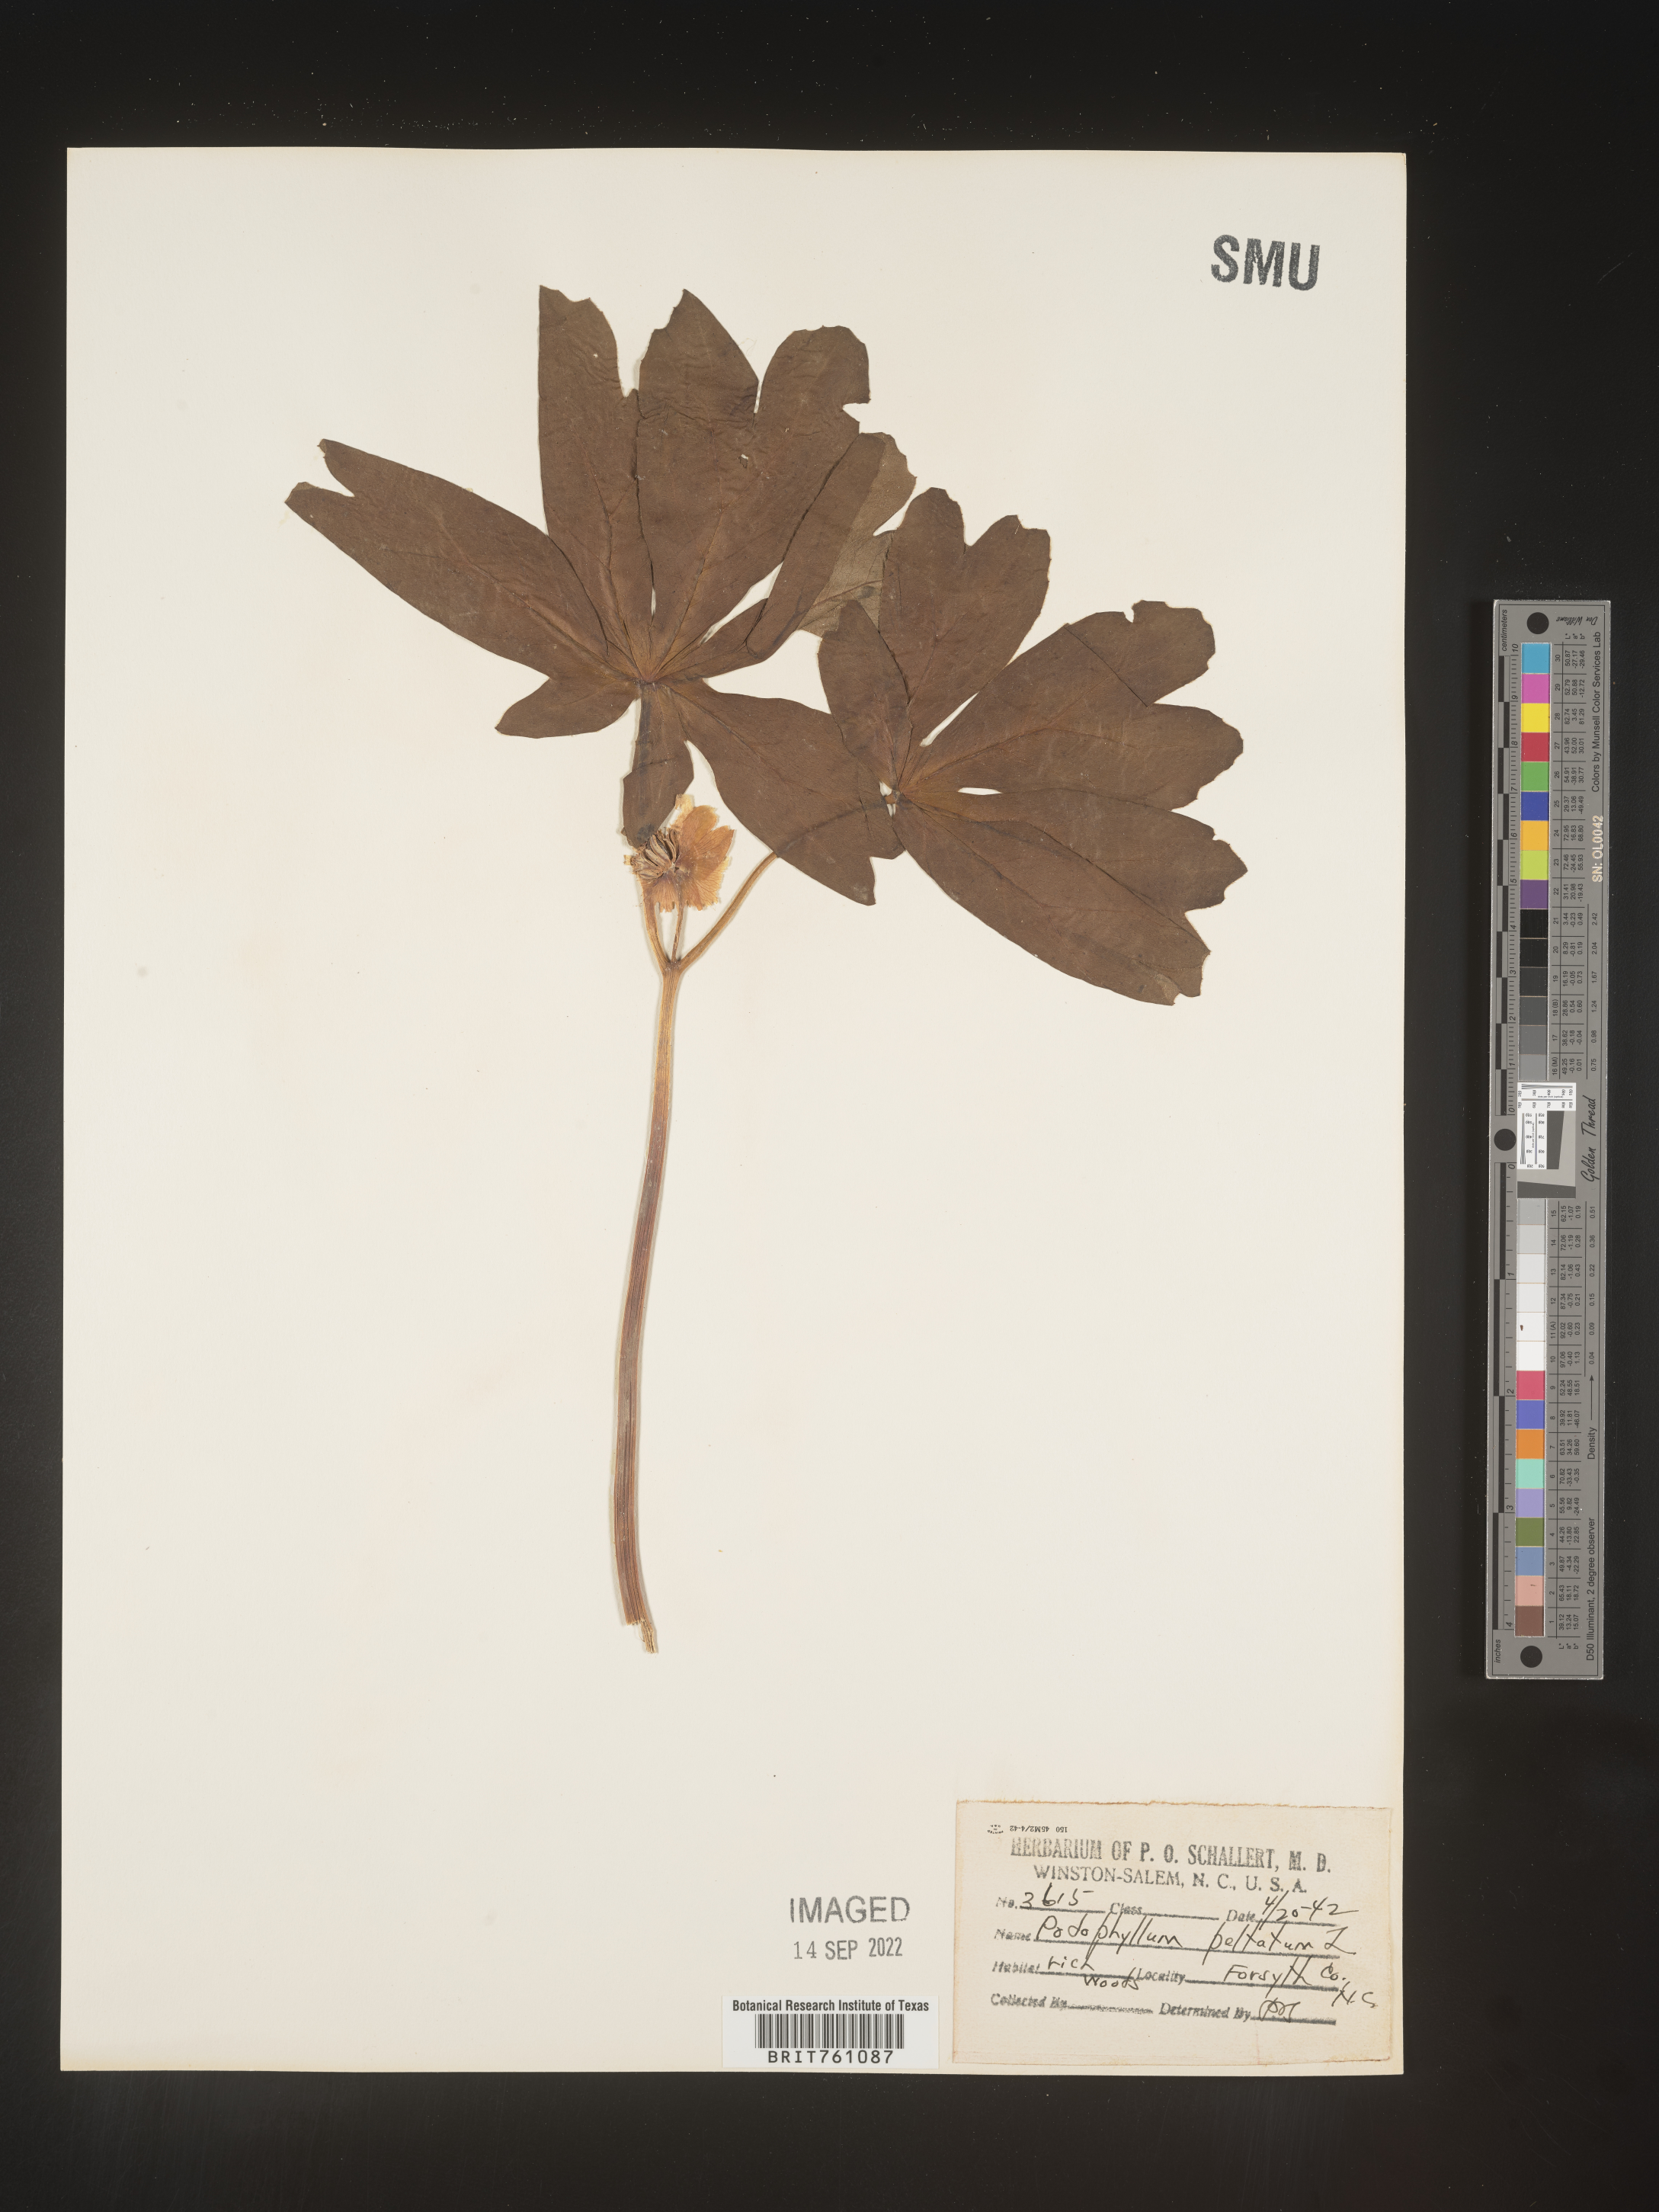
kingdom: Plantae
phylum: Tracheophyta
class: Magnoliopsida
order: Ranunculales
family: Berberidaceae
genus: Podophyllum
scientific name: Podophyllum peltatum
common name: Wild mandrake
